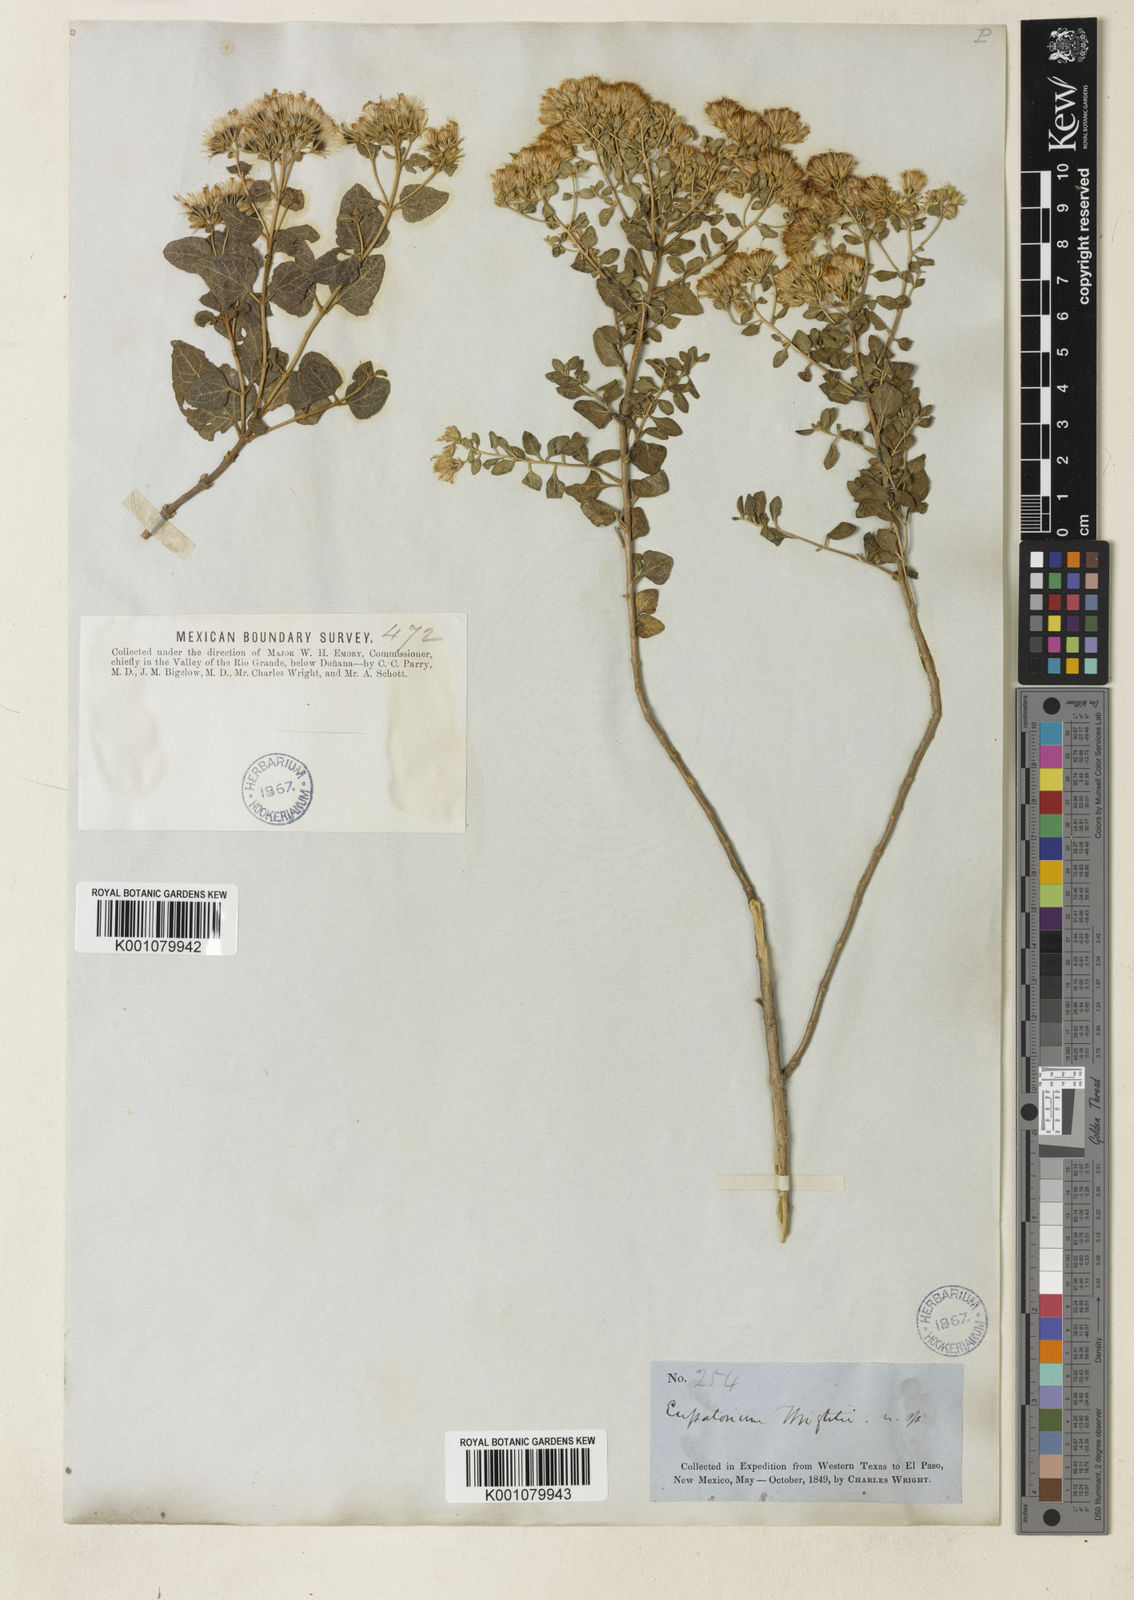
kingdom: Plantae
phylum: Tracheophyta
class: Magnoliopsida
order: Asterales
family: Asteraceae
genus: Ageratina
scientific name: Ageratina wrightii
